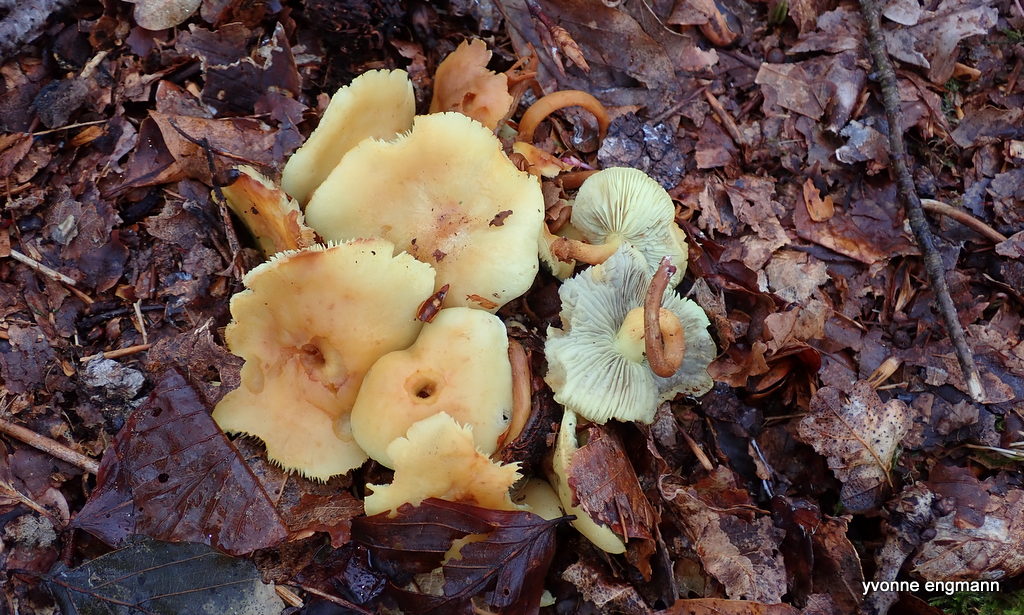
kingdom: Fungi
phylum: Basidiomycota
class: Agaricomycetes
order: Agaricales
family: Strophariaceae
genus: Hypholoma
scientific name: Hypholoma fasciculare
